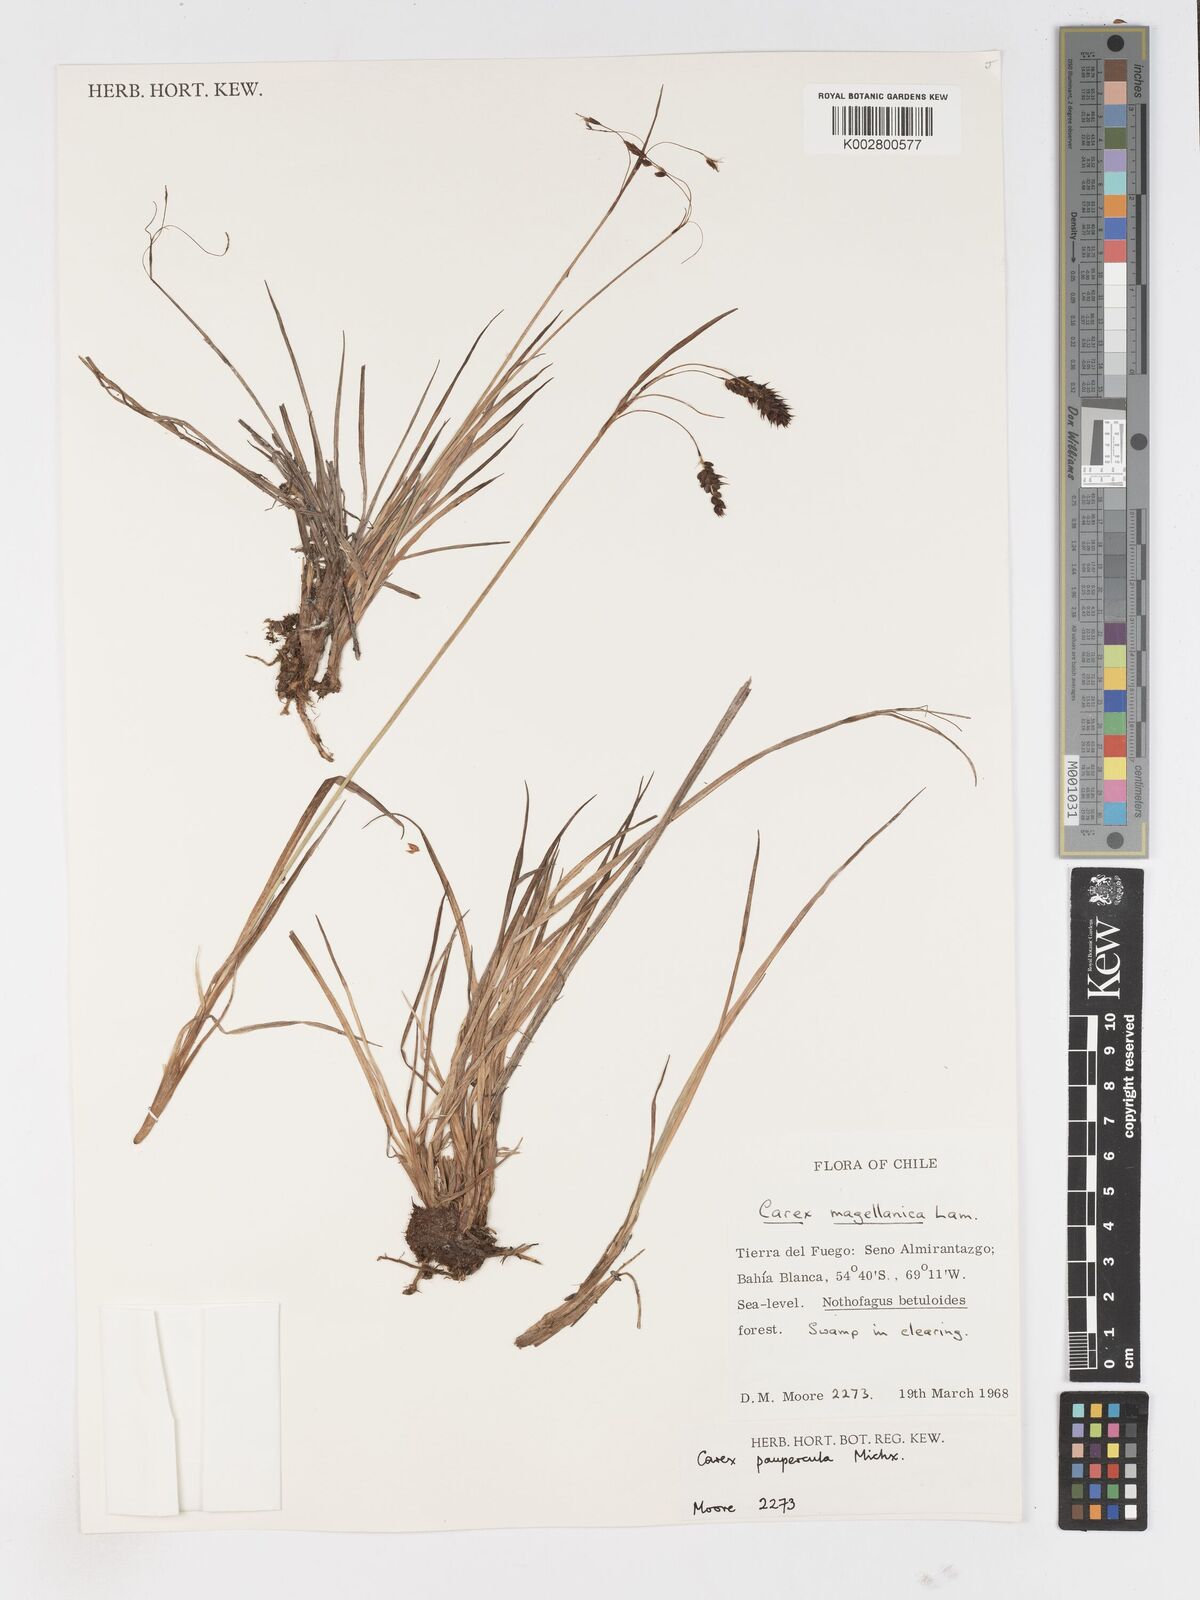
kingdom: Plantae
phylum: Tracheophyta
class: Liliopsida
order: Poales
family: Cyperaceae
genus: Carex
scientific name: Carex magellanica
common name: Bog sedge
